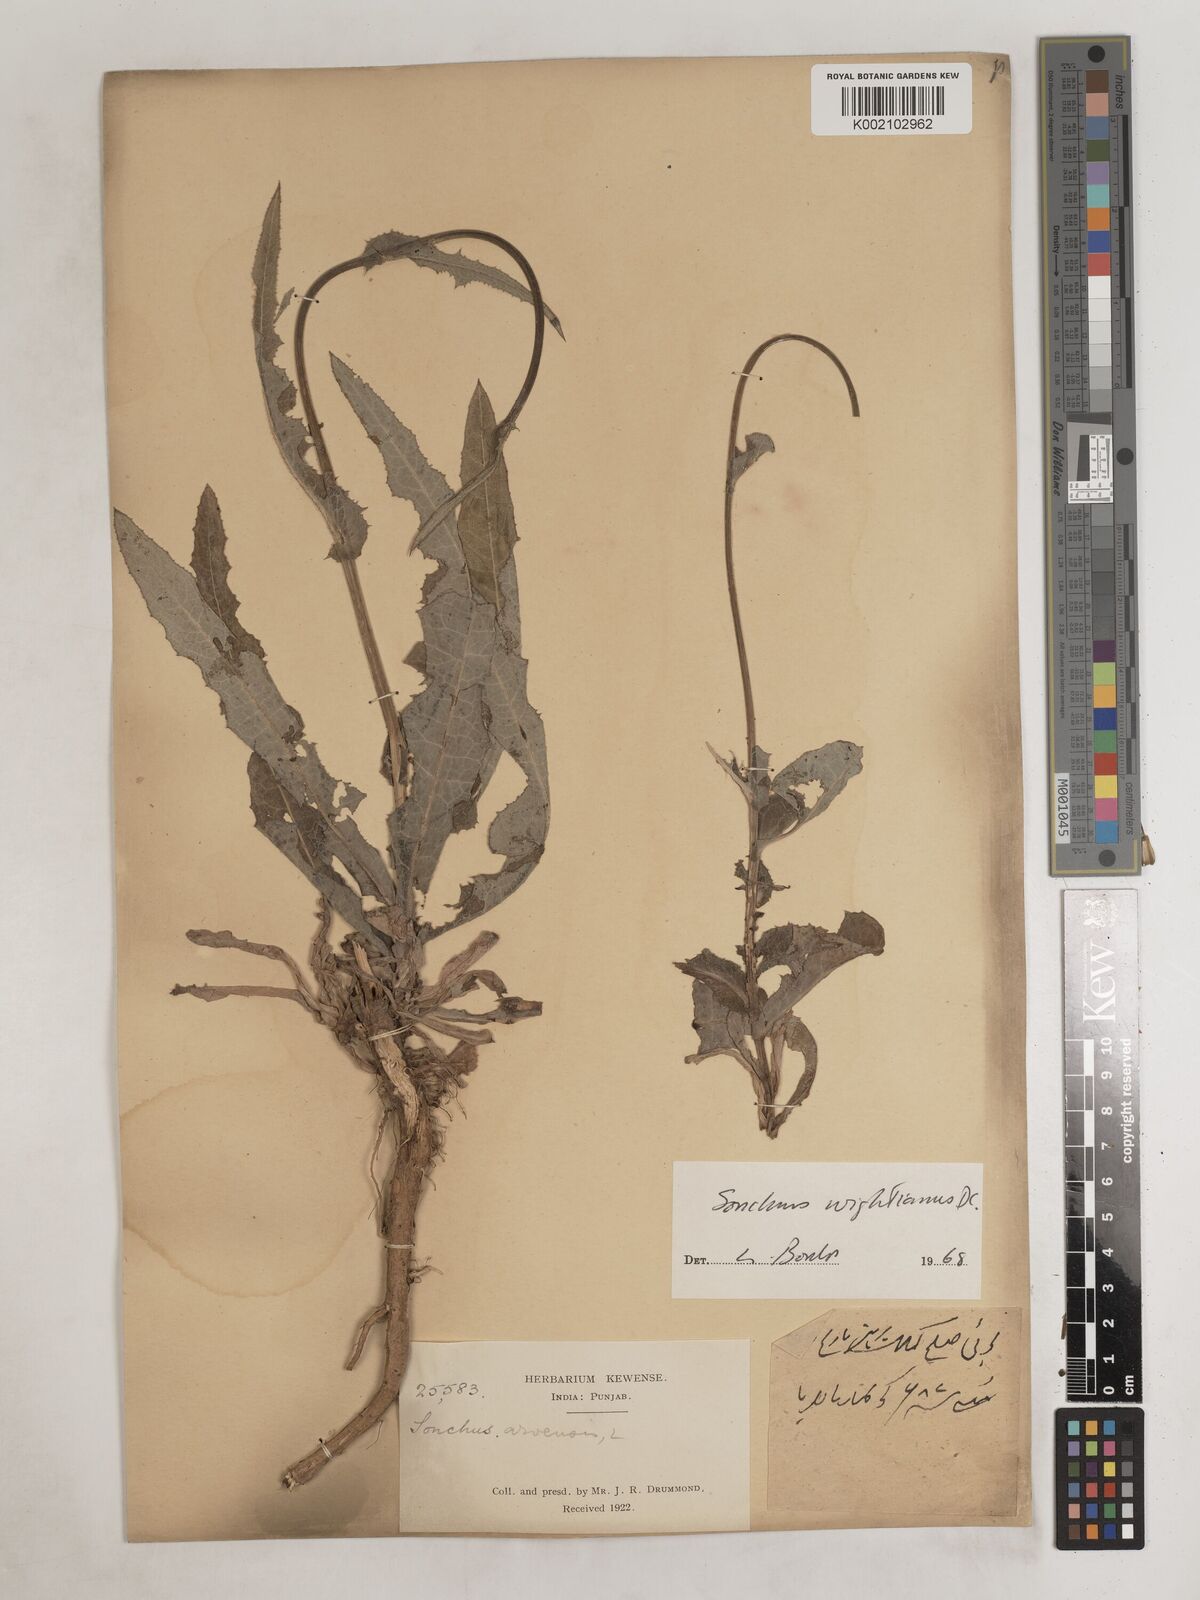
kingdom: Plantae
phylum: Tracheophyta
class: Magnoliopsida
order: Asterales
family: Asteraceae
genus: Sonchus
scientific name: Sonchus arvensis
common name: Perennial sow-thistle
